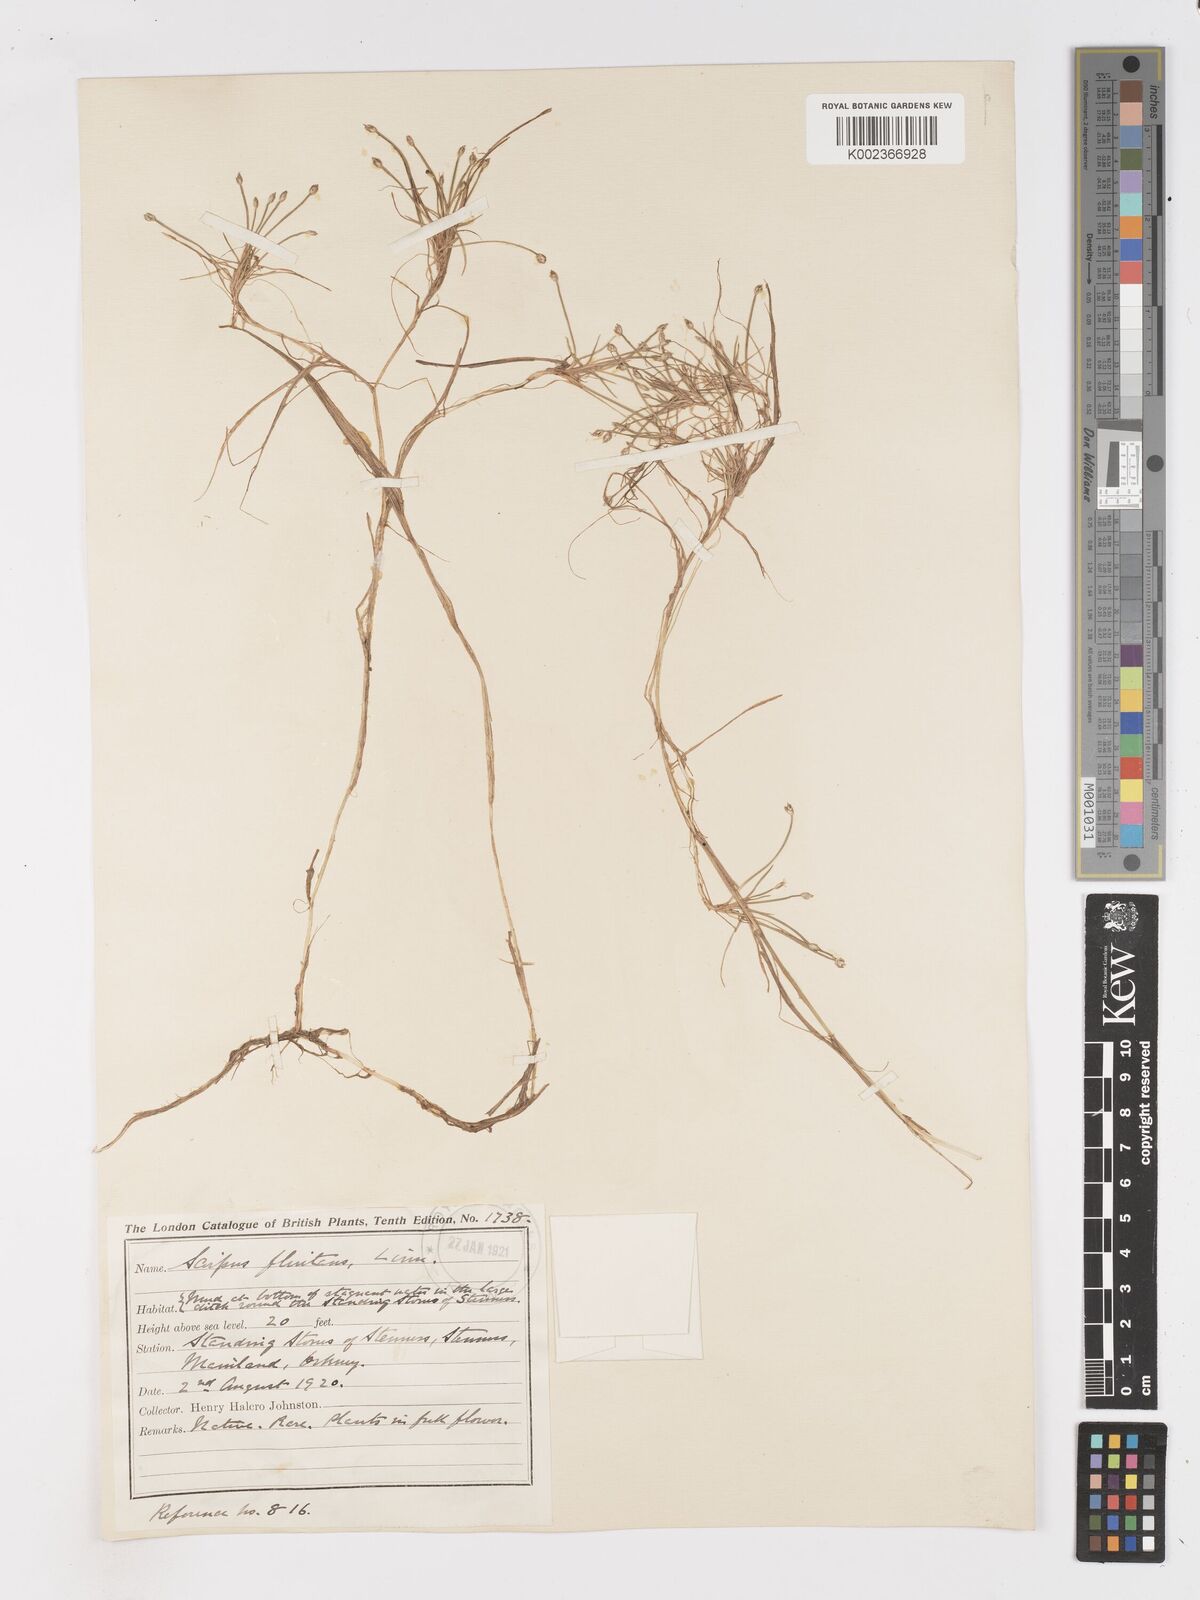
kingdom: Plantae
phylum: Tracheophyta
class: Liliopsida
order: Poales
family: Cyperaceae
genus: Isolepis
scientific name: Isolepis fluitans
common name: Floating club-rush
